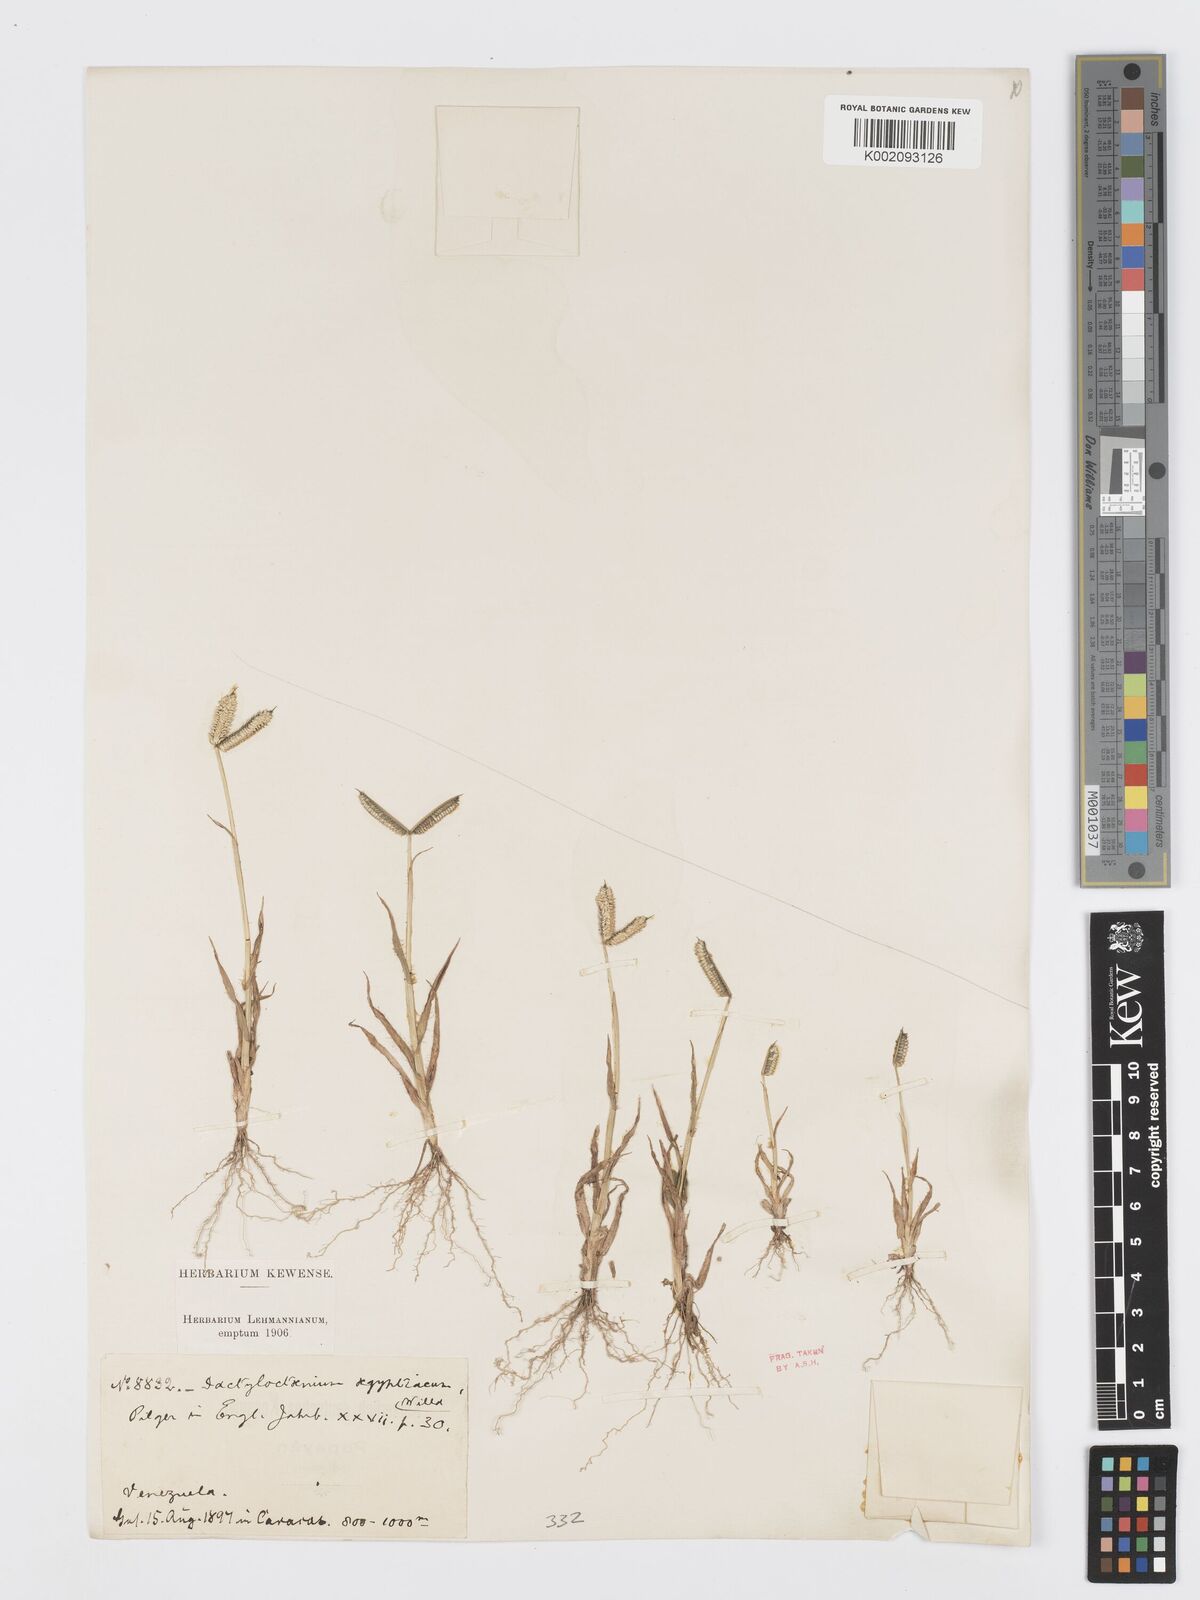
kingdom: Plantae
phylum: Tracheophyta
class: Liliopsida
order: Poales
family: Poaceae
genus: Dactyloctenium
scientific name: Dactyloctenium aegyptium
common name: Egyptian grass
